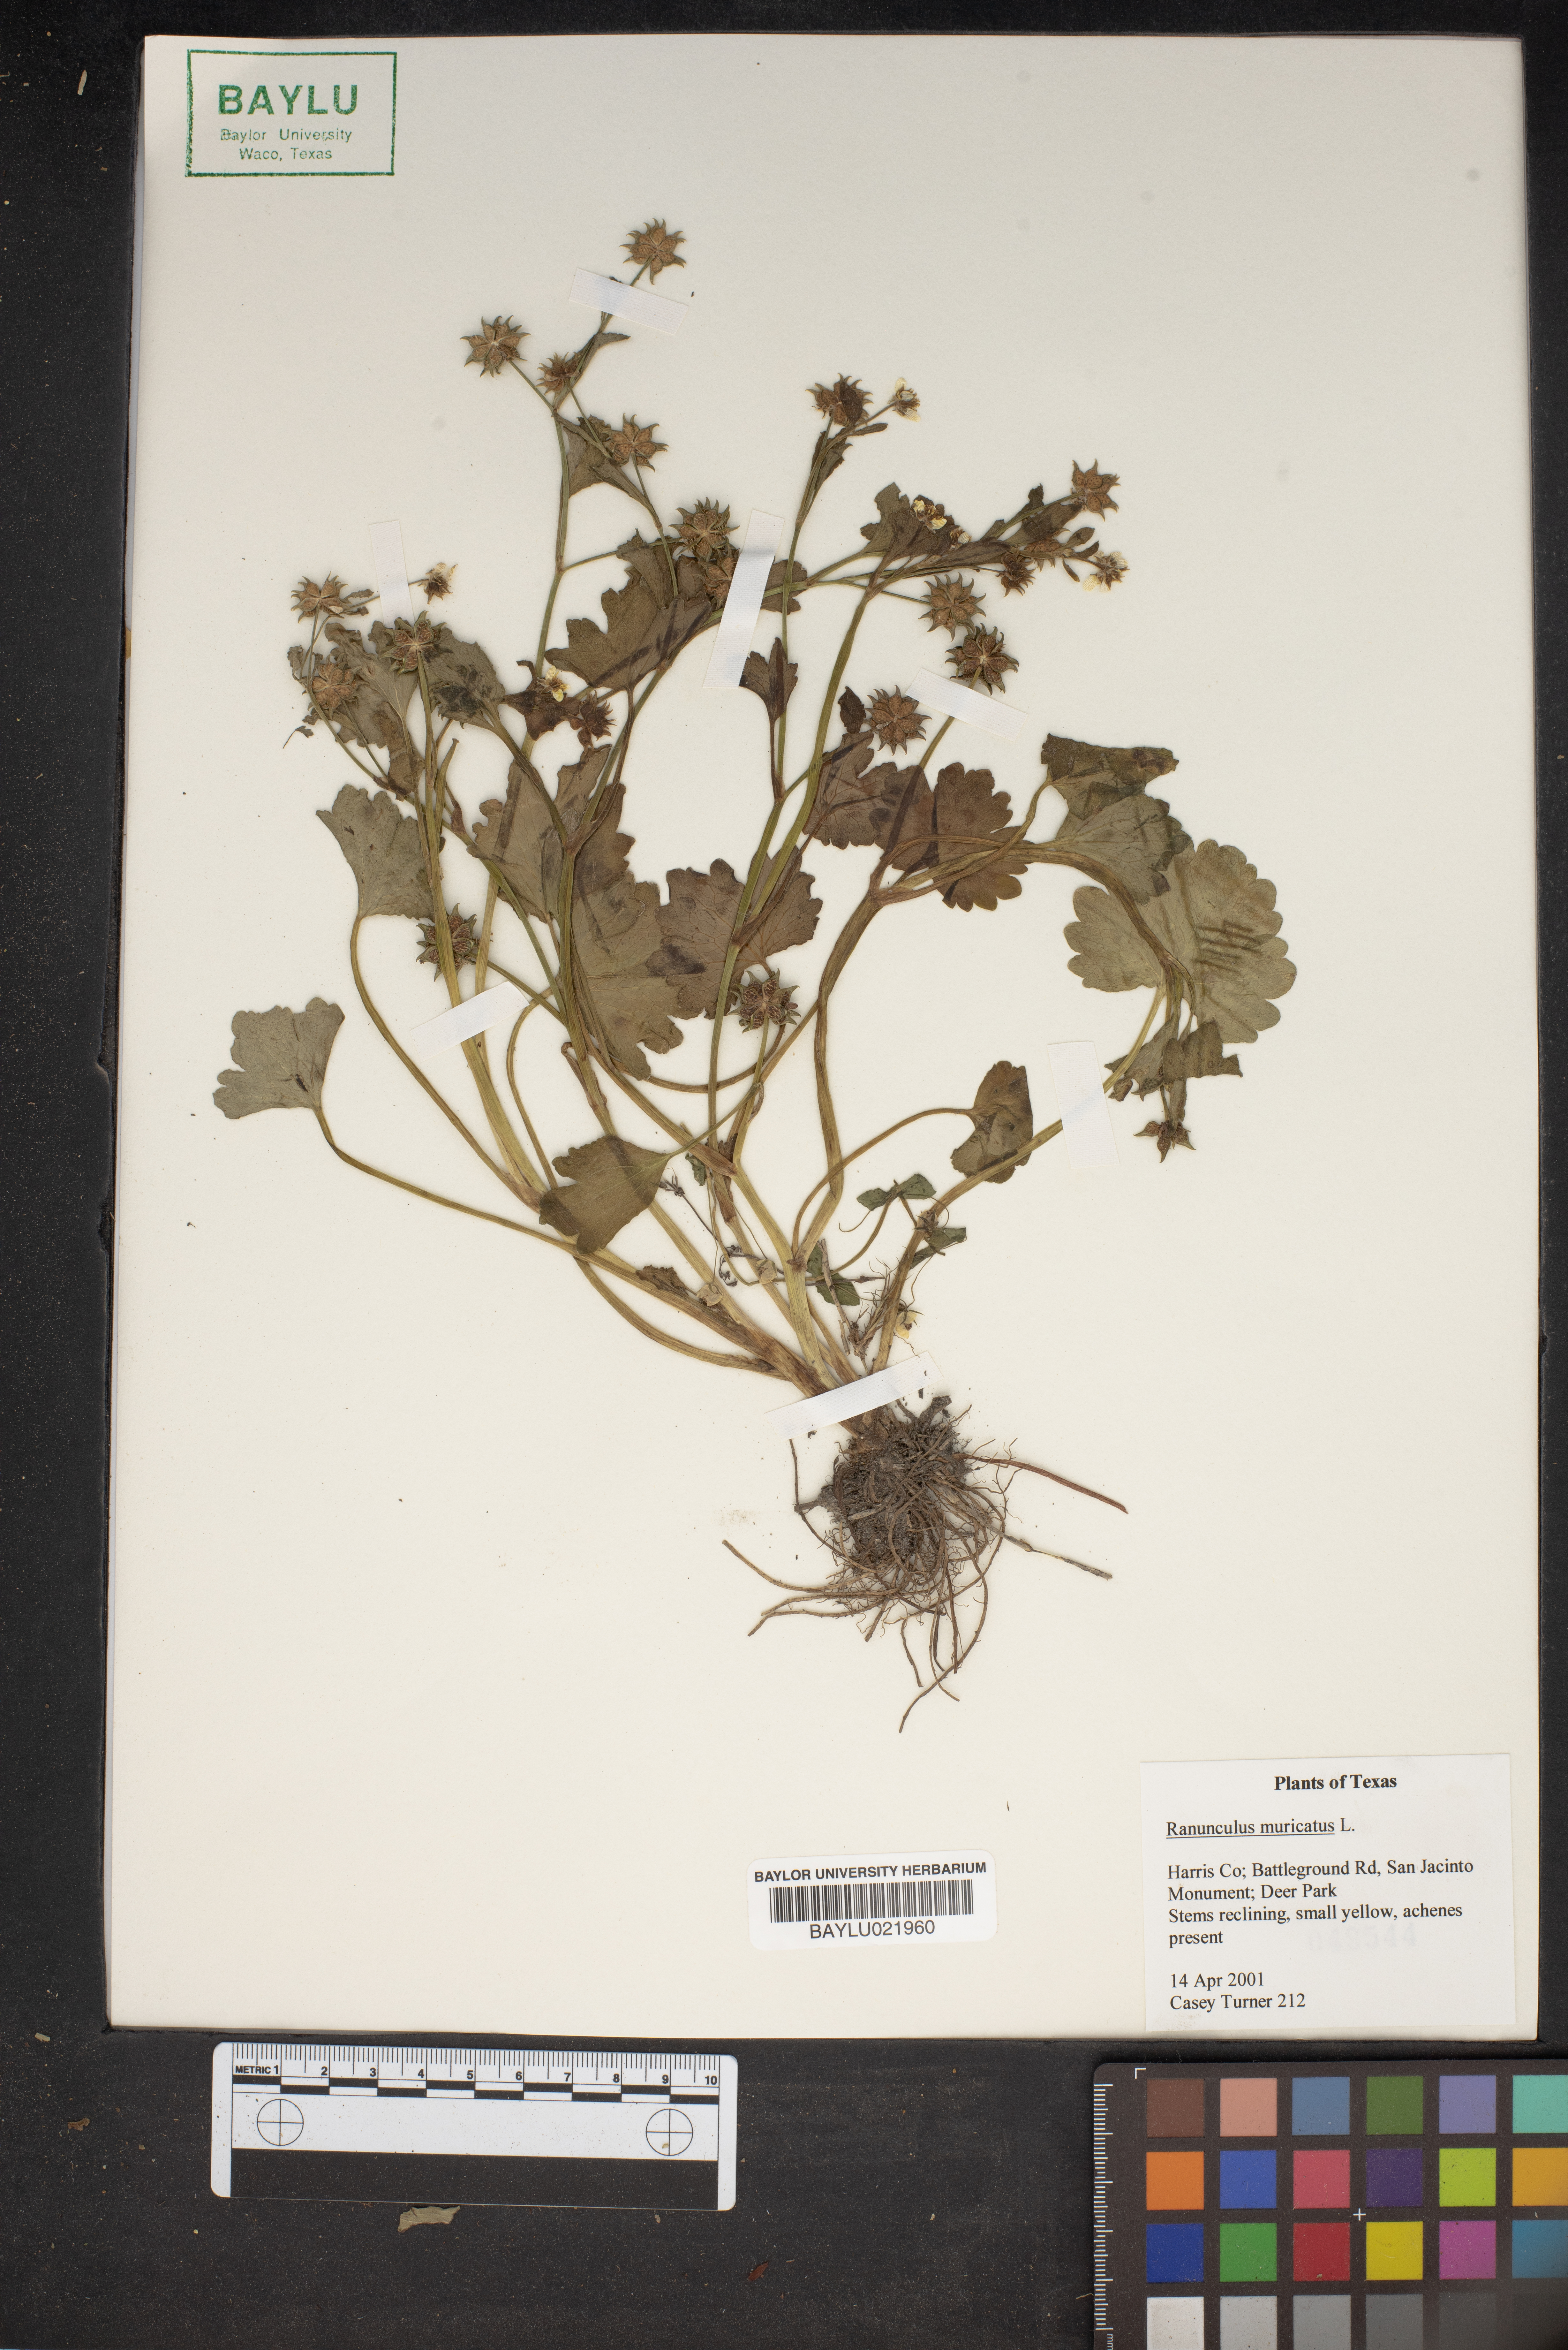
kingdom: Plantae
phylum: Tracheophyta
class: Magnoliopsida
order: Ranunculales
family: Ranunculaceae
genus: Ranunculus
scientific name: Ranunculus muricatus
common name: Rough-fruited buttercup
